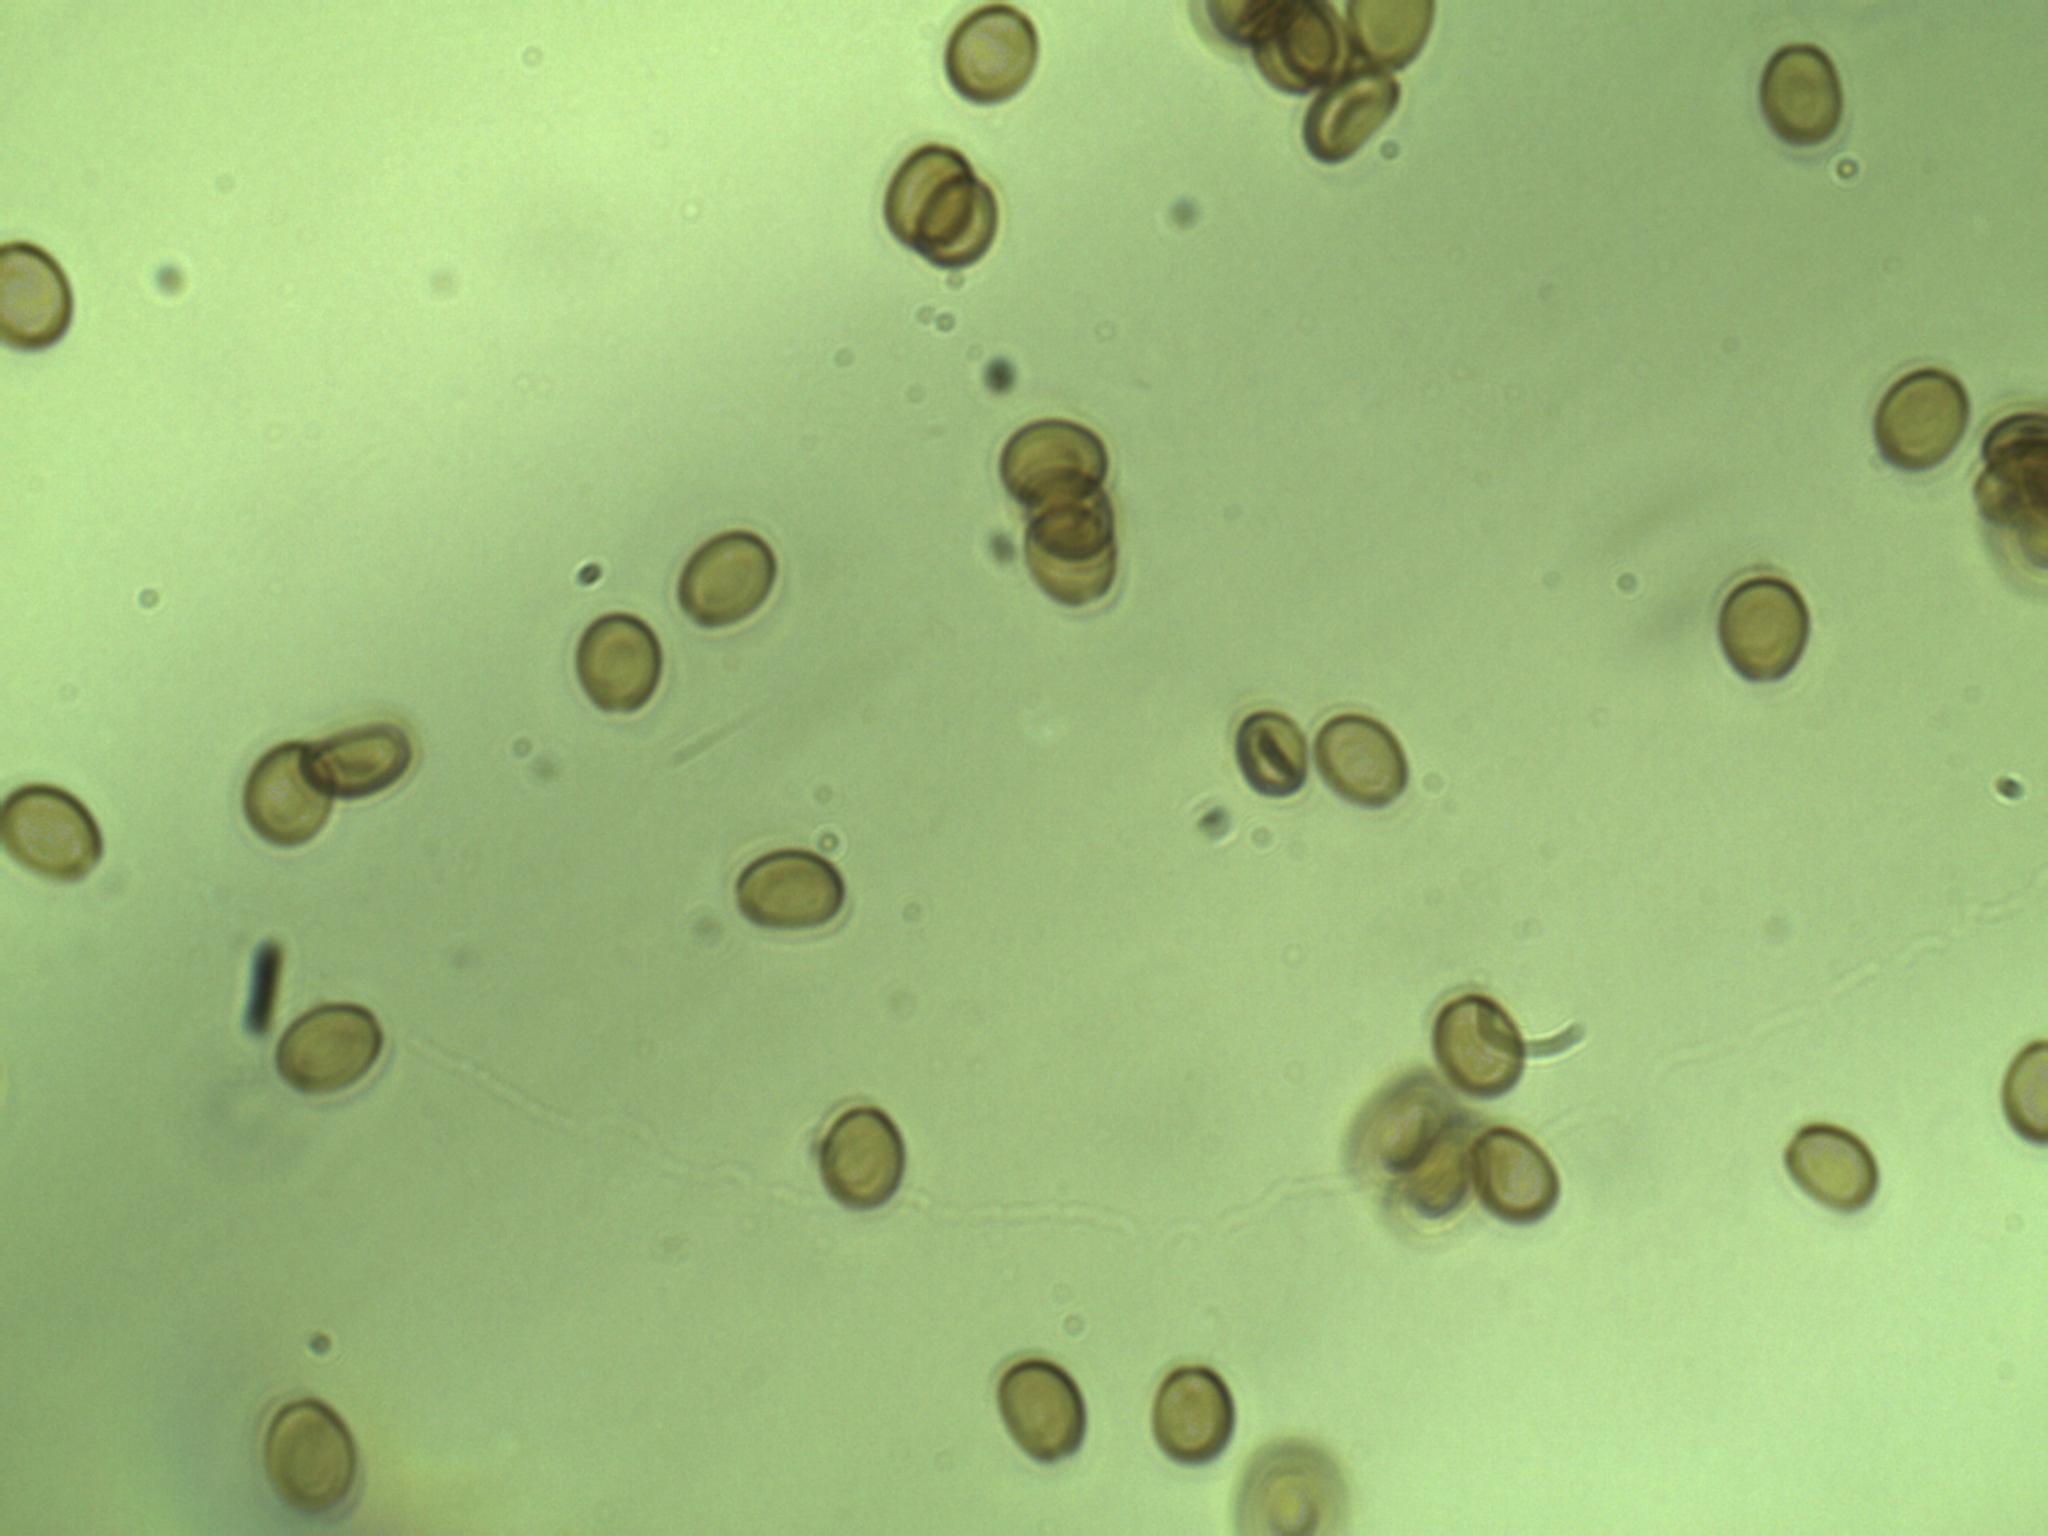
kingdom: Fungi
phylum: Basidiomycota
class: Agaricomycetes
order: Agaricales
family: Strophariaceae
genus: Pholiota
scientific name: Pholiota adiposa
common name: højtsiddende skælhat
